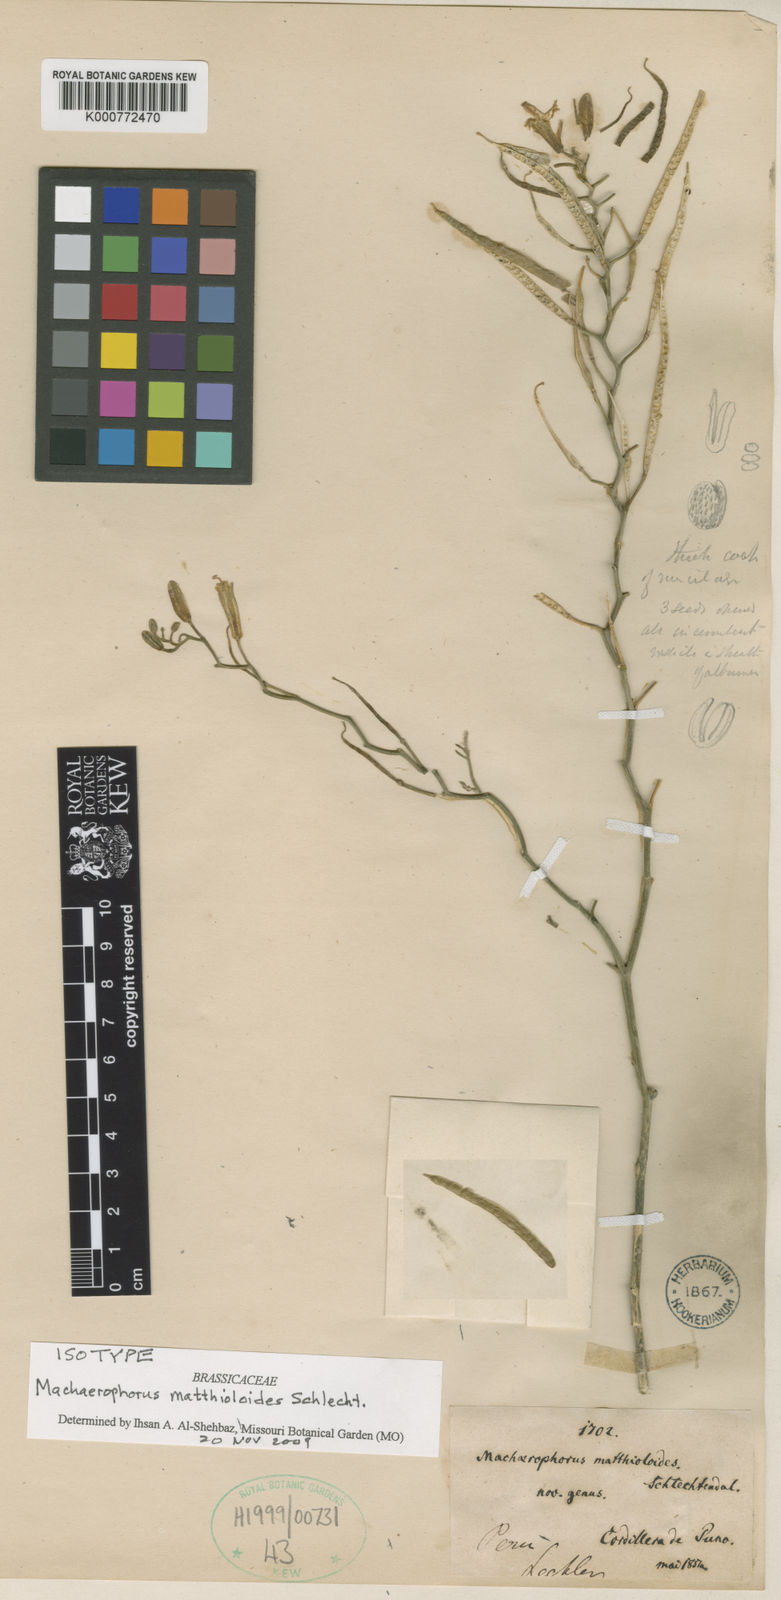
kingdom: Plantae
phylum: Tracheophyta
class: Magnoliopsida
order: Brassicales
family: Brassicaceae
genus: Machaerophorus
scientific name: Machaerophorus matthioloides
